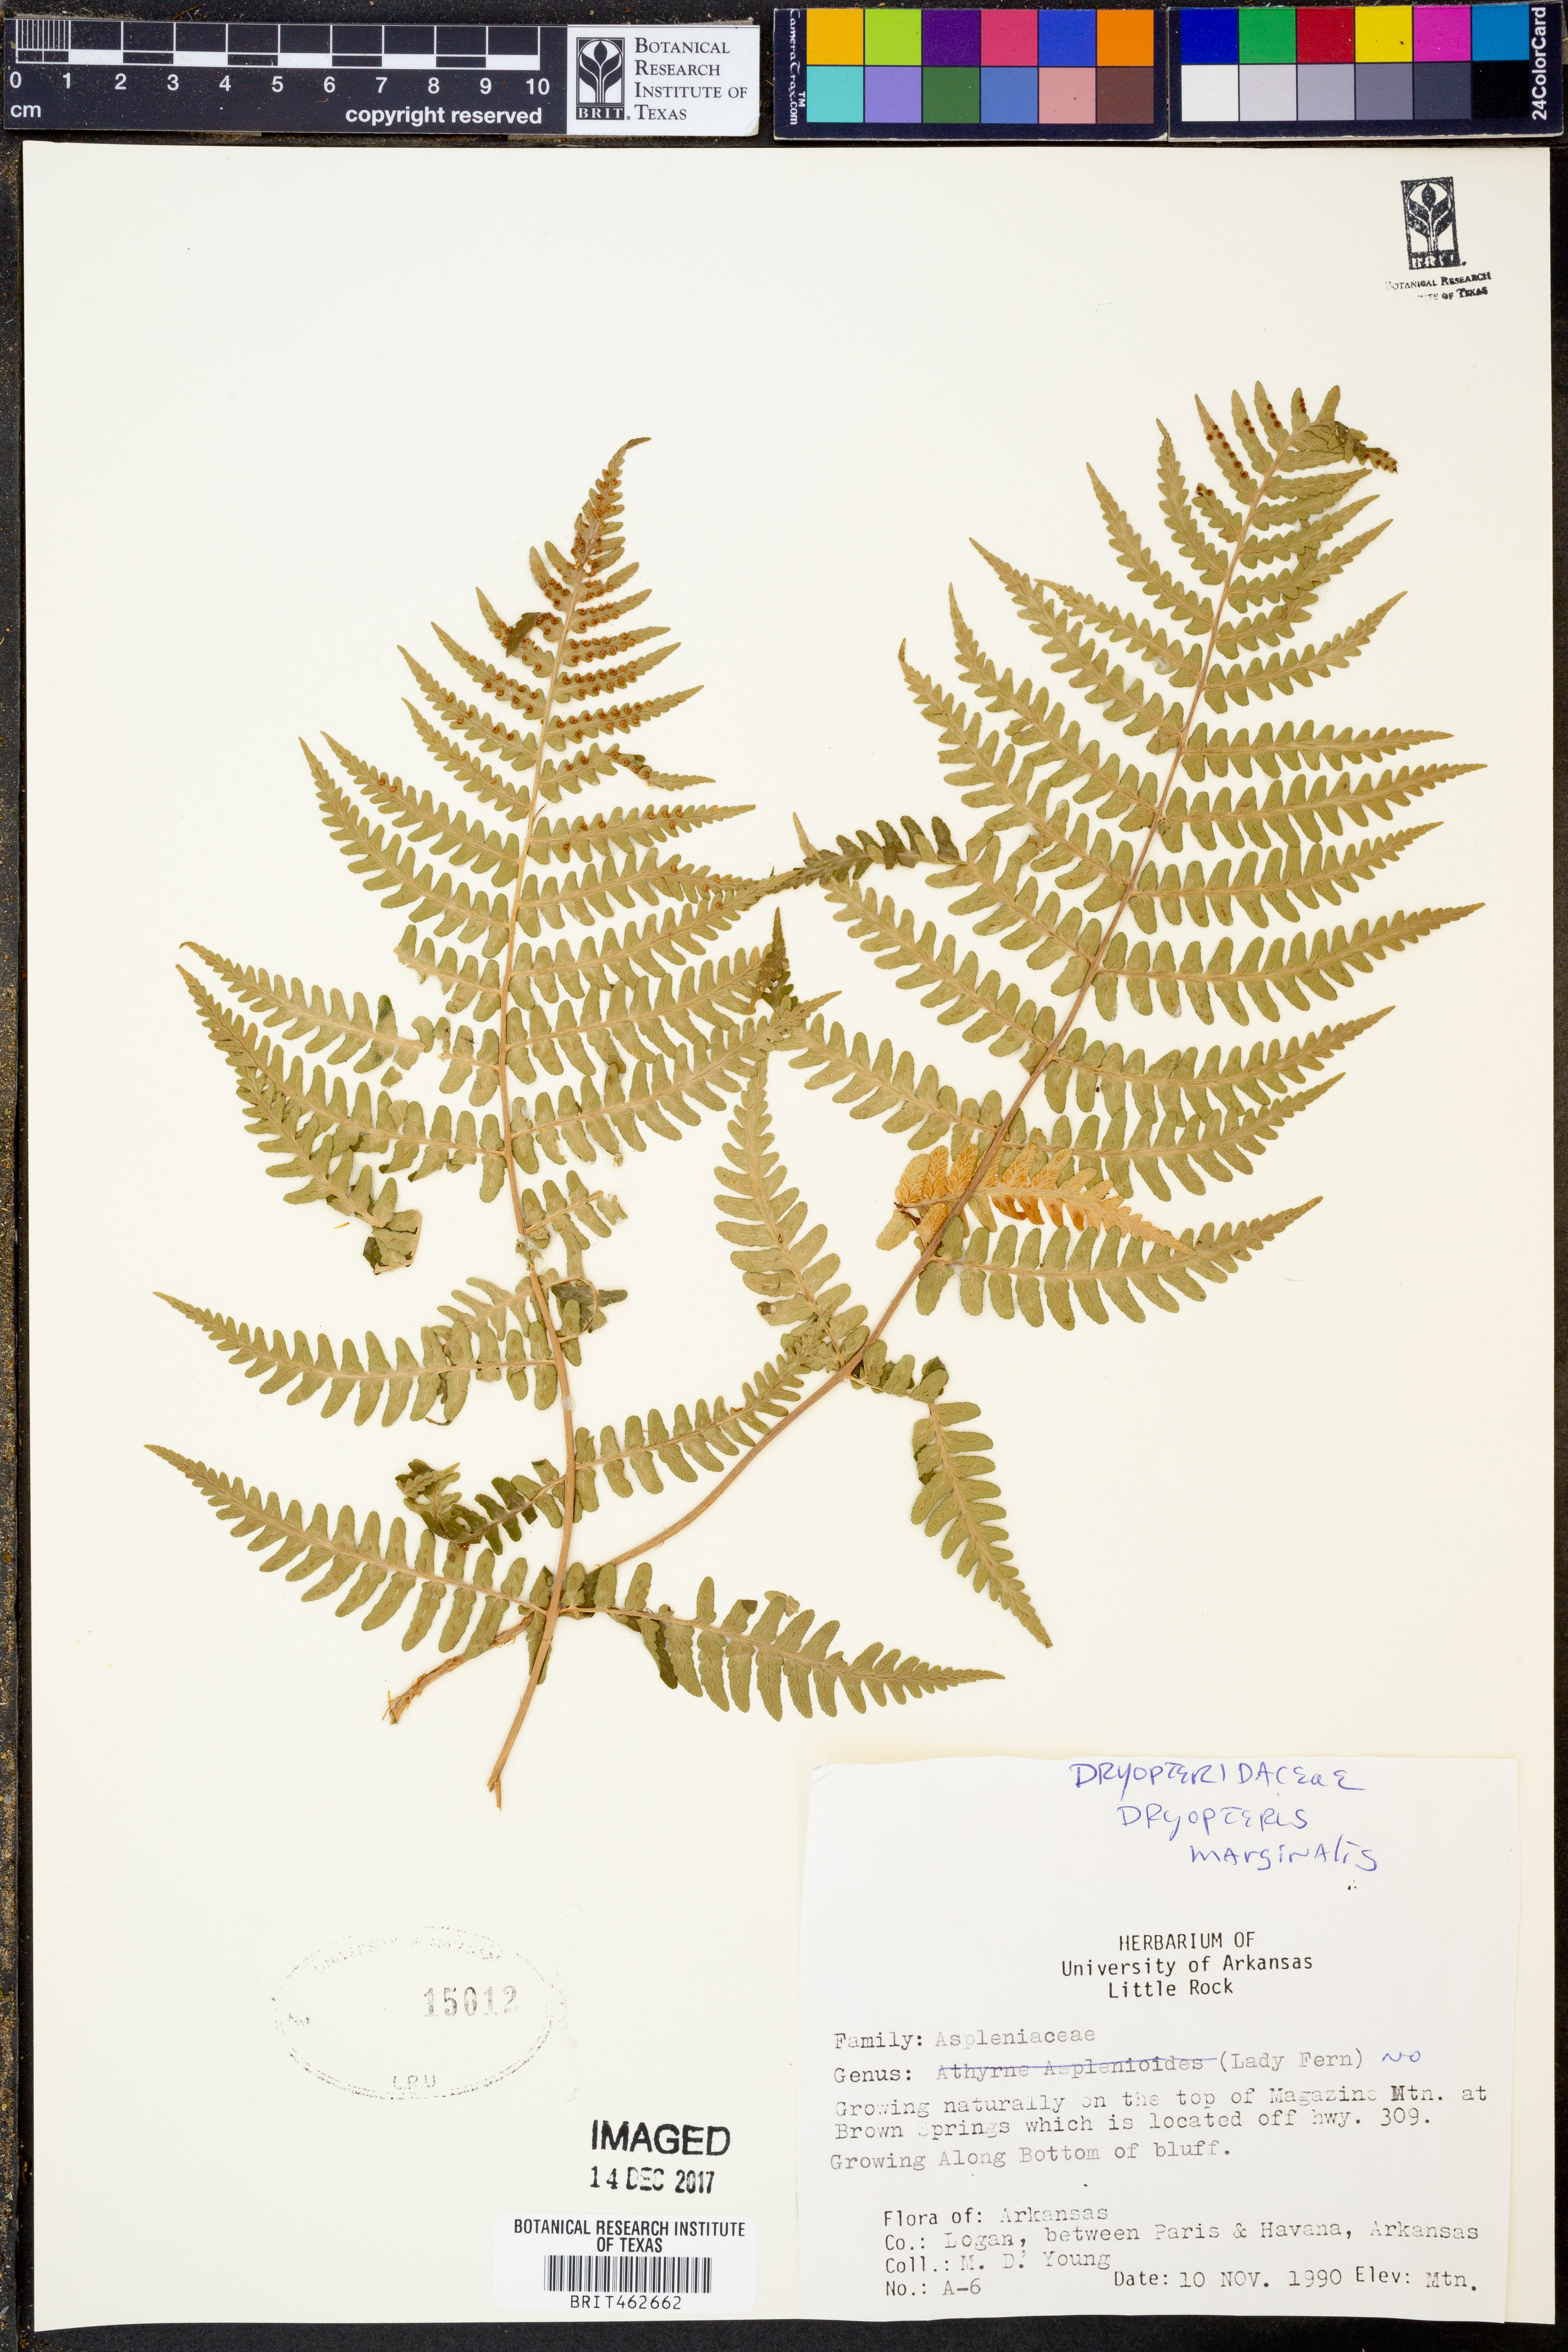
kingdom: Plantae
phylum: Tracheophyta
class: Polypodiopsida
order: Polypodiales
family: Dryopteridaceae
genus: Dryopteris
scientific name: Dryopteris marginalis
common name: Marginal wood fern
